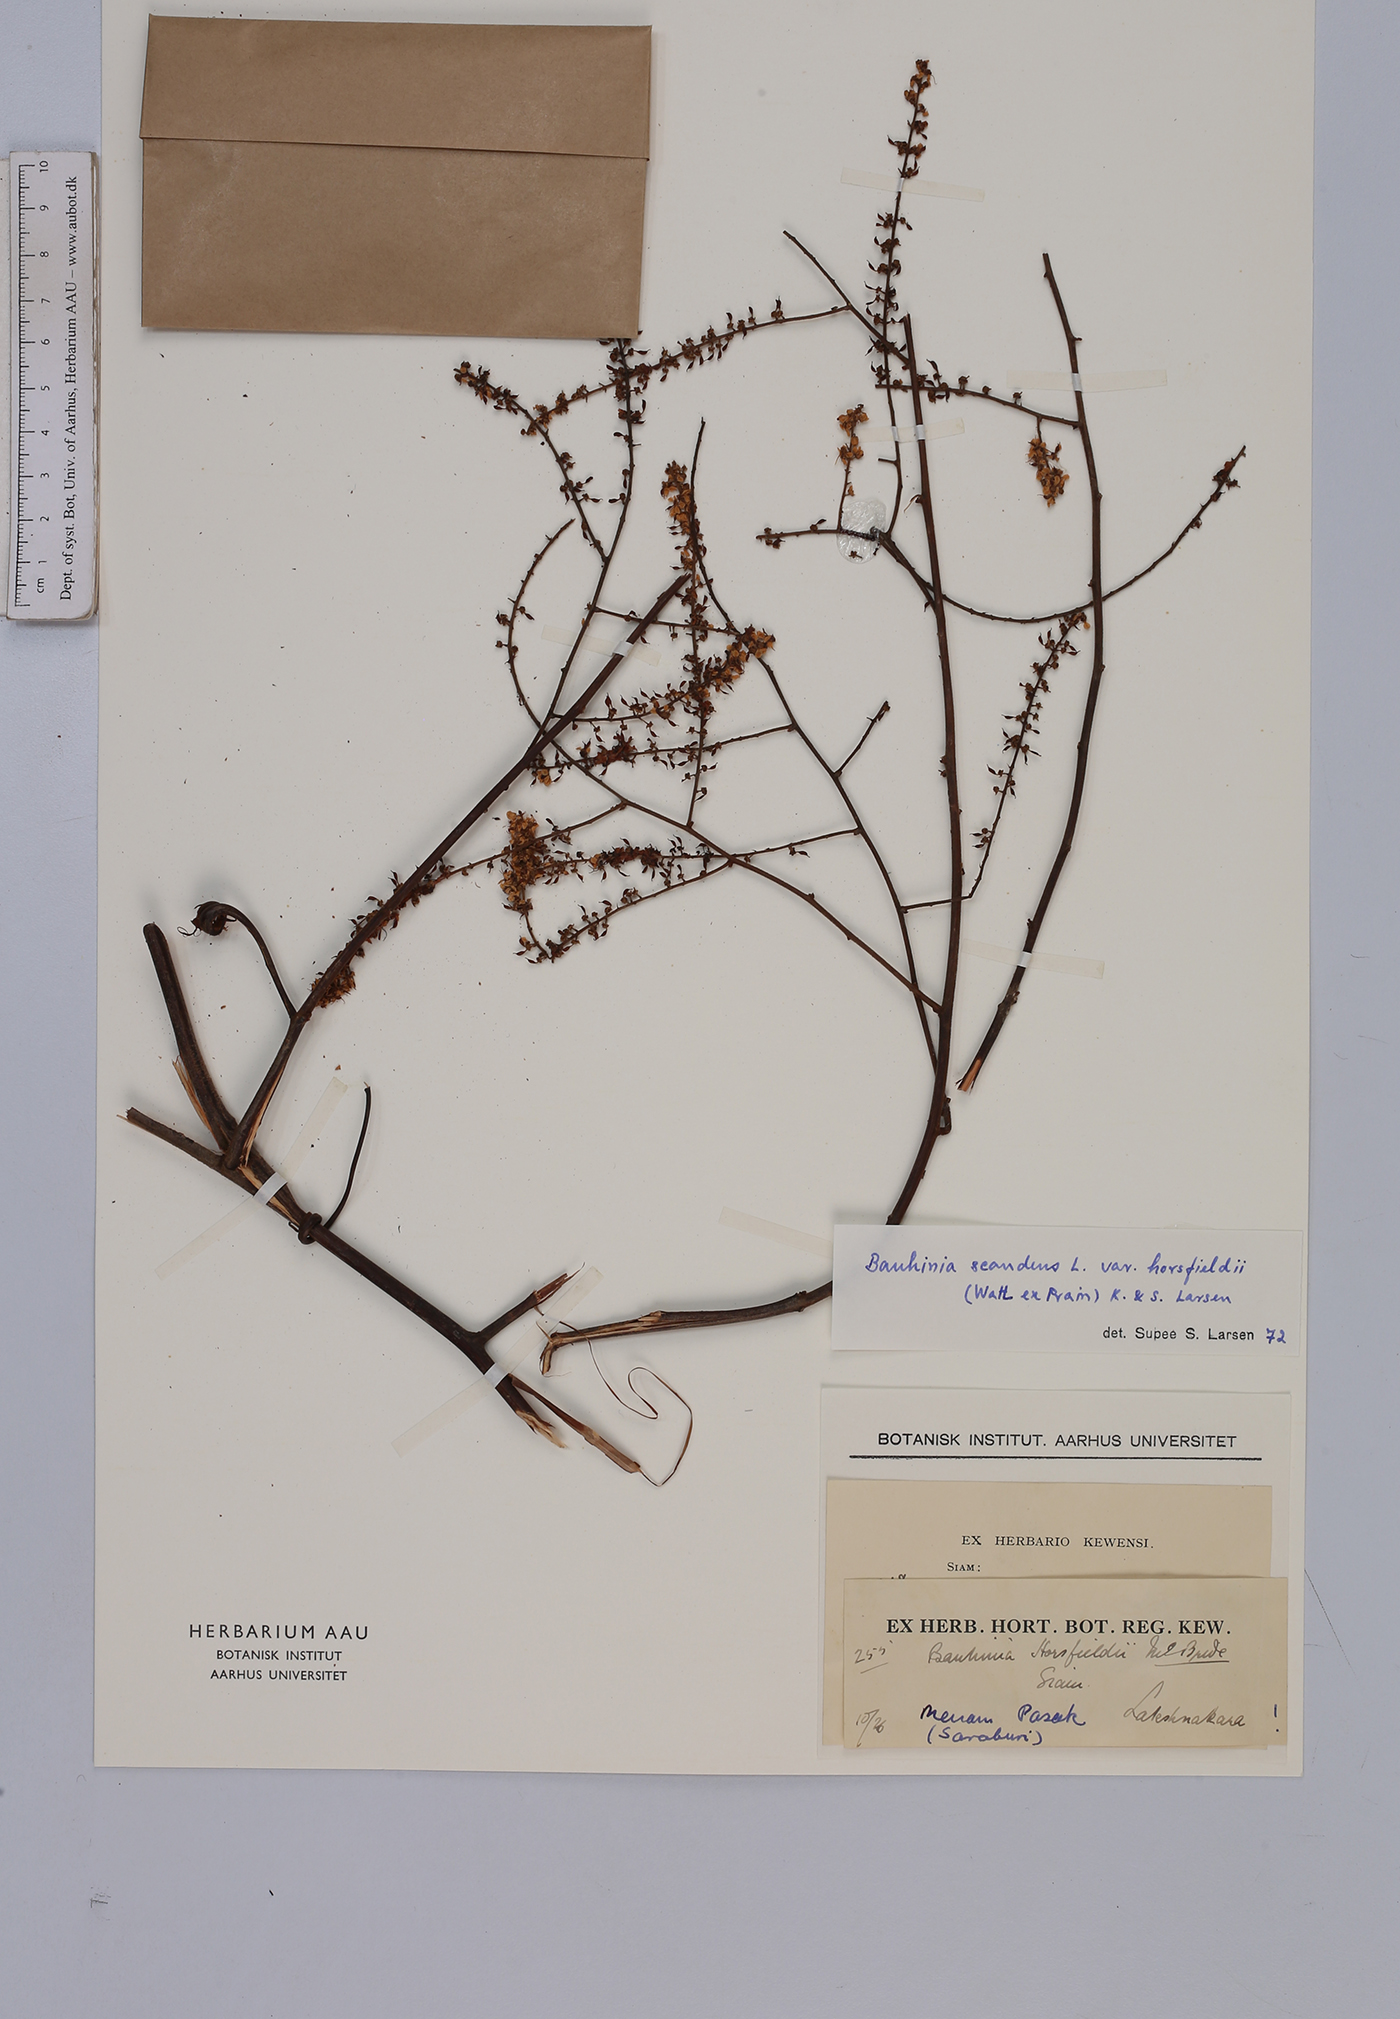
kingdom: Plantae
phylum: Tracheophyta
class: Magnoliopsida
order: Fabales
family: Fabaceae
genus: Phanera
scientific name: Phanera scandens
